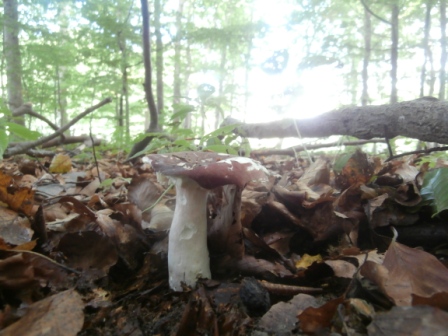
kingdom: Fungi
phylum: Basidiomycota
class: Agaricomycetes
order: Russulales
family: Russulaceae
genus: Russula
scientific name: Russula olivacea
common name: stor skørhat
